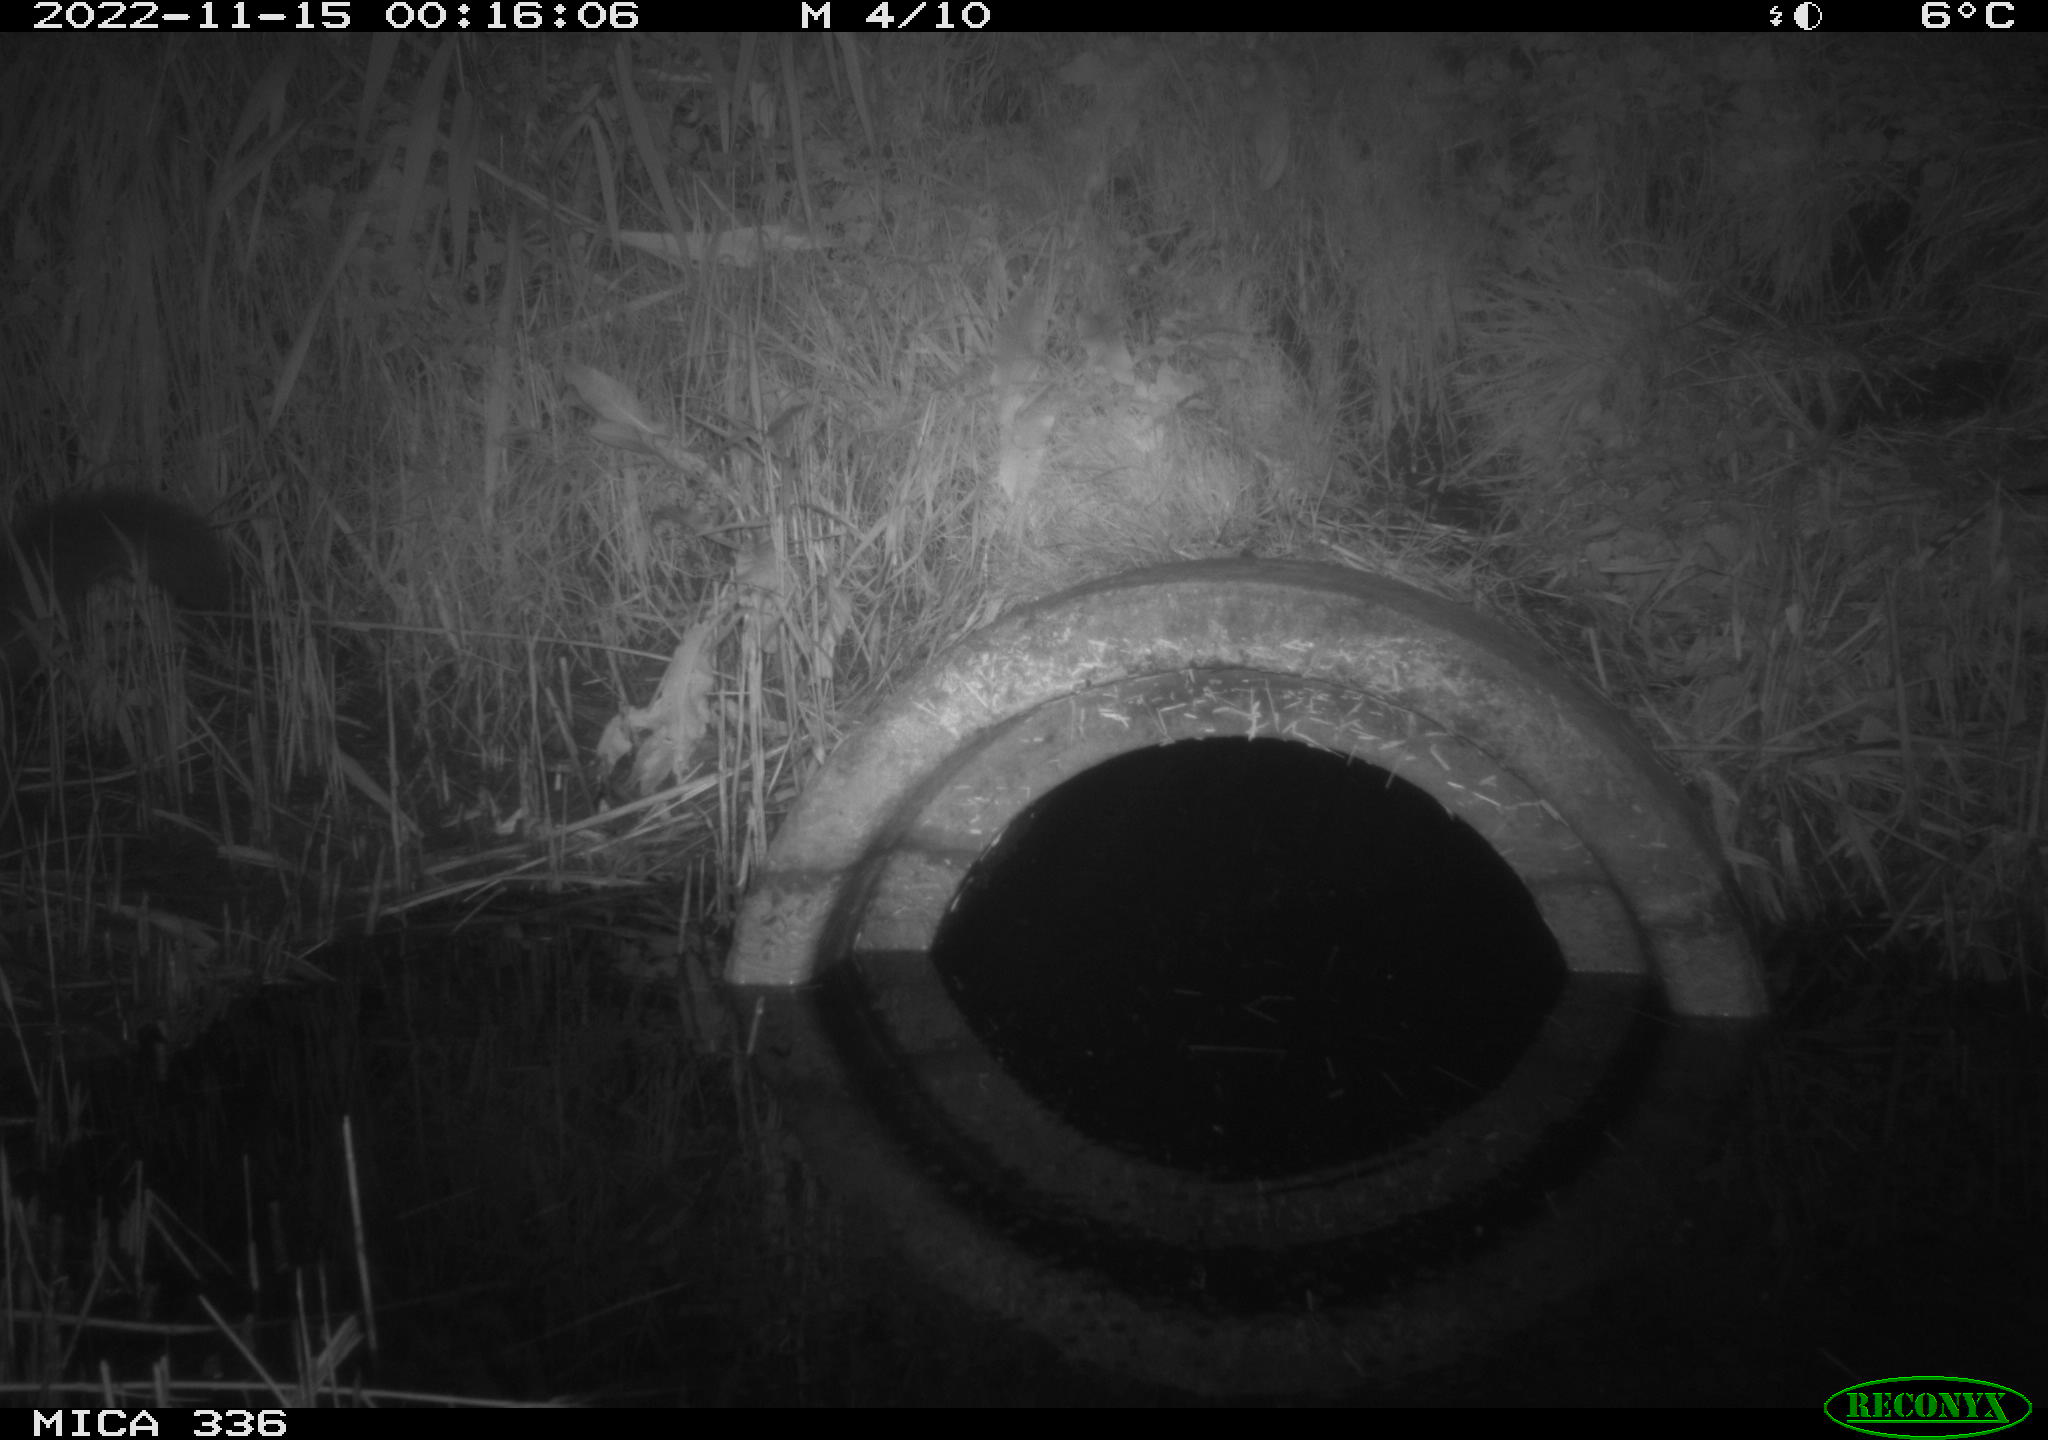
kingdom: Animalia
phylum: Chordata
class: Mammalia
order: Carnivora
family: Mustelidae
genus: Martes
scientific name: Martes foina
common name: Beech marten
